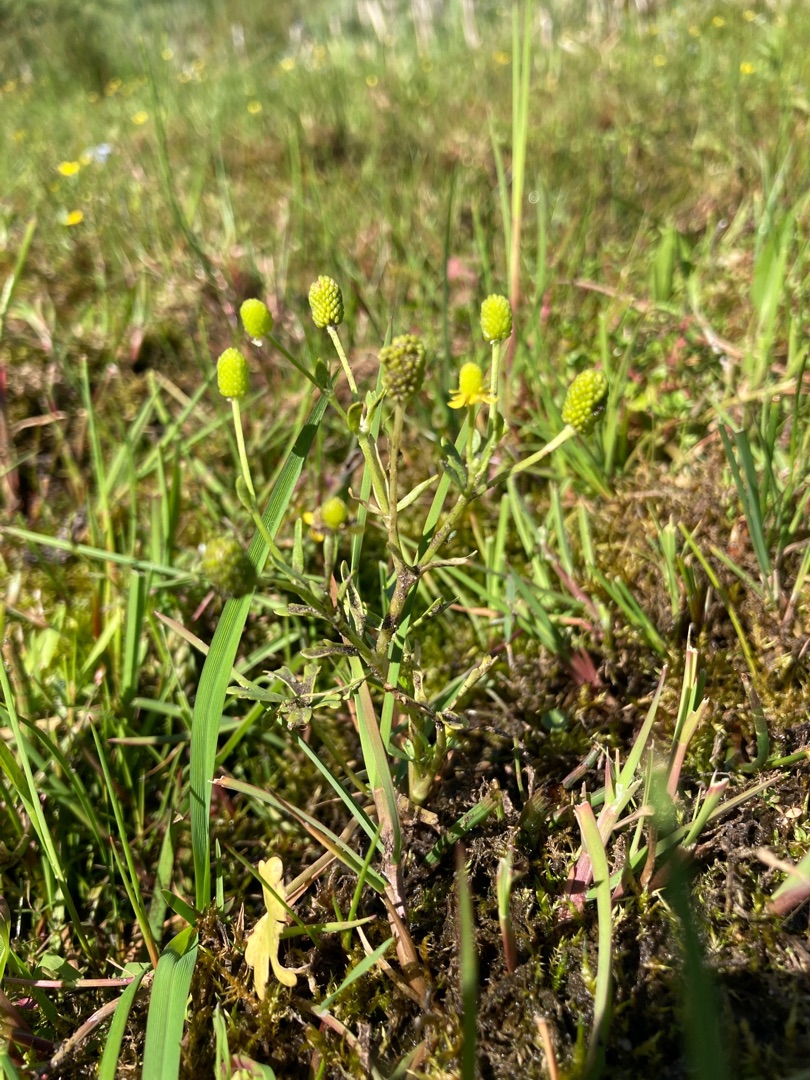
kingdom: Plantae
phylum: Tracheophyta
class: Magnoliopsida
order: Ranunculales
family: Ranunculaceae
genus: Ranunculus
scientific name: Ranunculus flammula
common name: Kær-ranunkel
